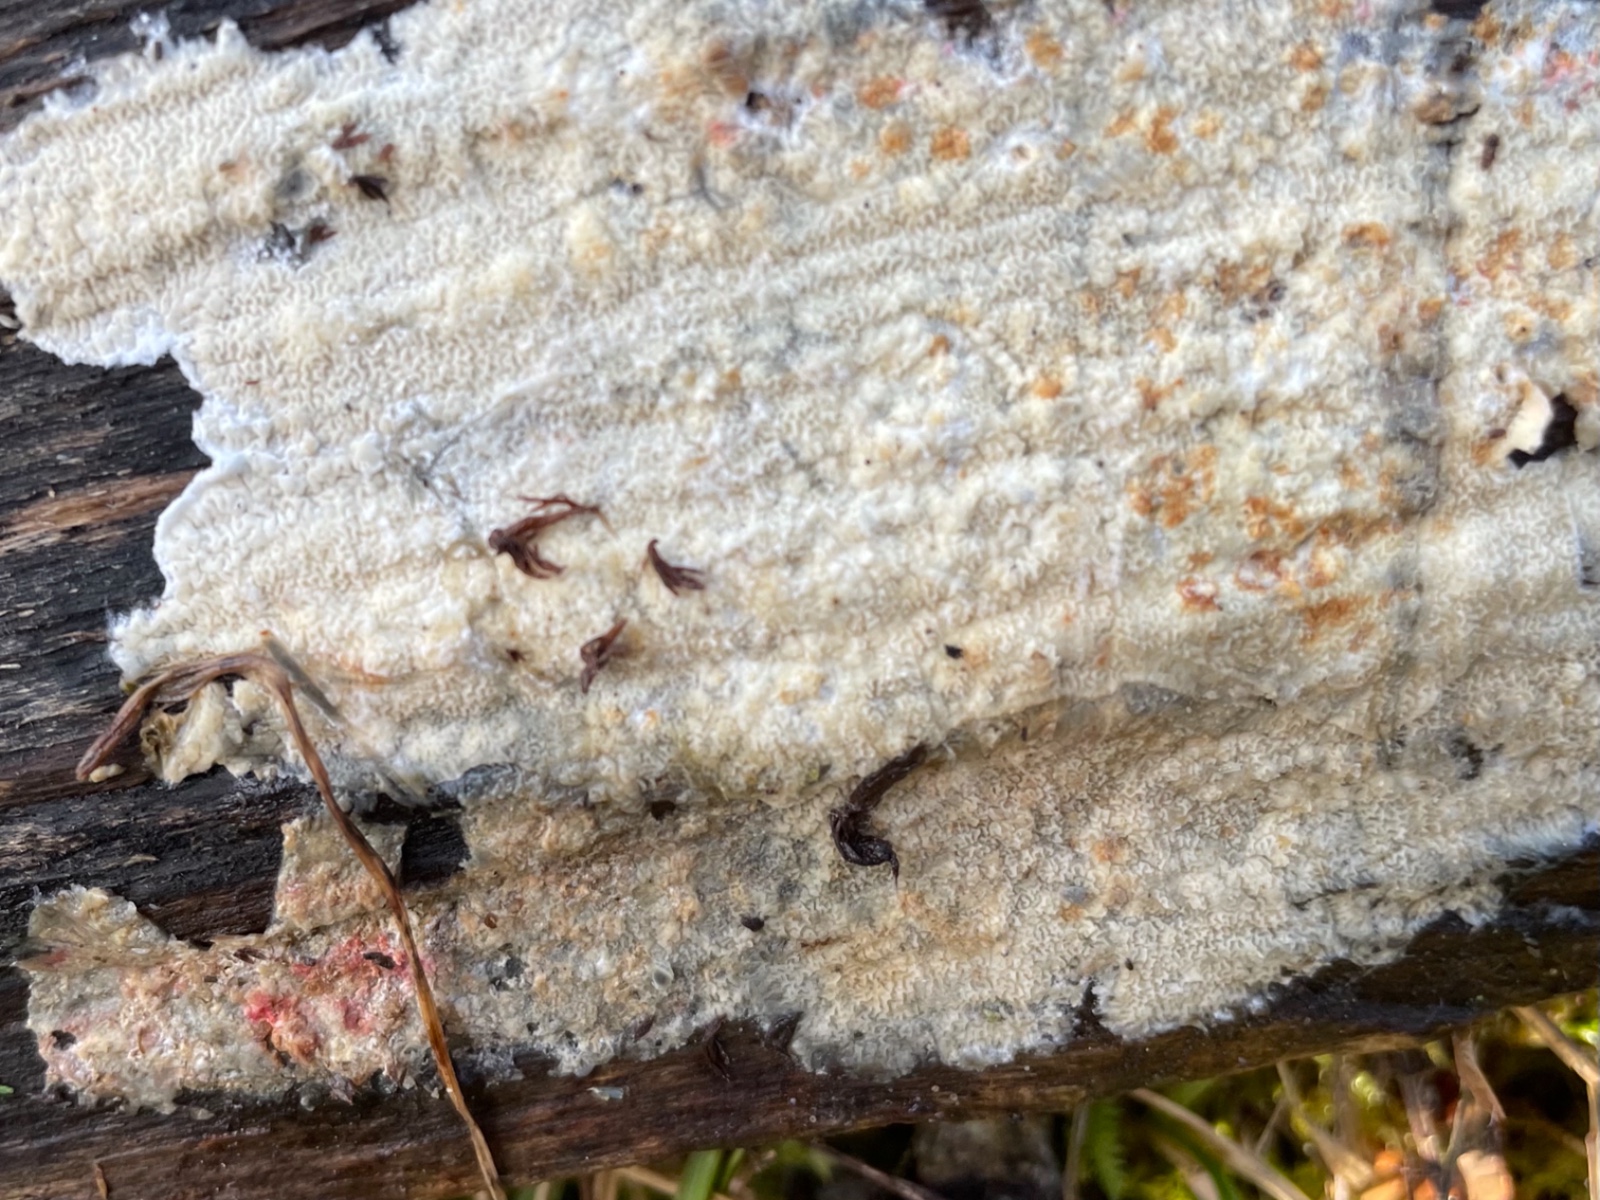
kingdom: Fungi
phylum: Basidiomycota
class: Agaricomycetes
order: Polyporales
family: Irpicaceae
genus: Byssomerulius
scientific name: Byssomerulius corium
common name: læder-åresvamp
